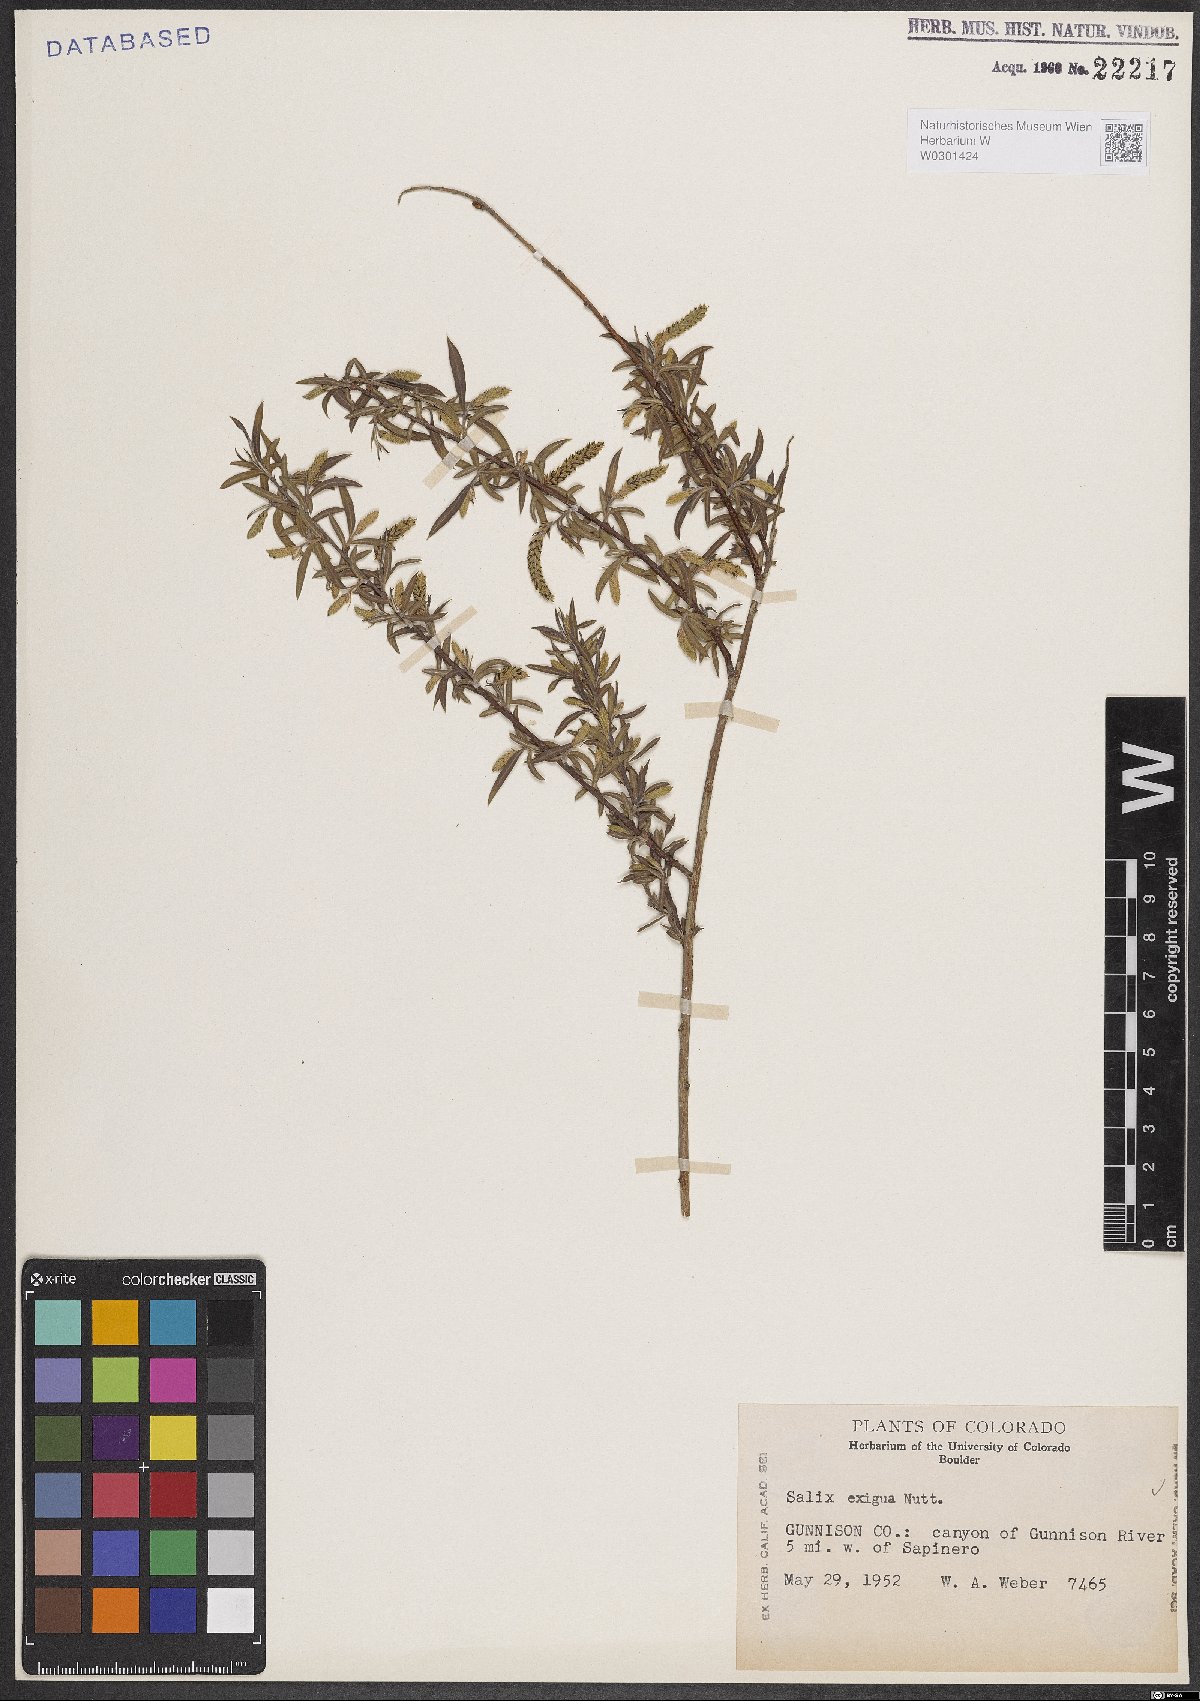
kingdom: Plantae
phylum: Tracheophyta
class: Magnoliopsida
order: Malpighiales
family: Salicaceae
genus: Salix
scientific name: Salix exigua
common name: Coyote willow
